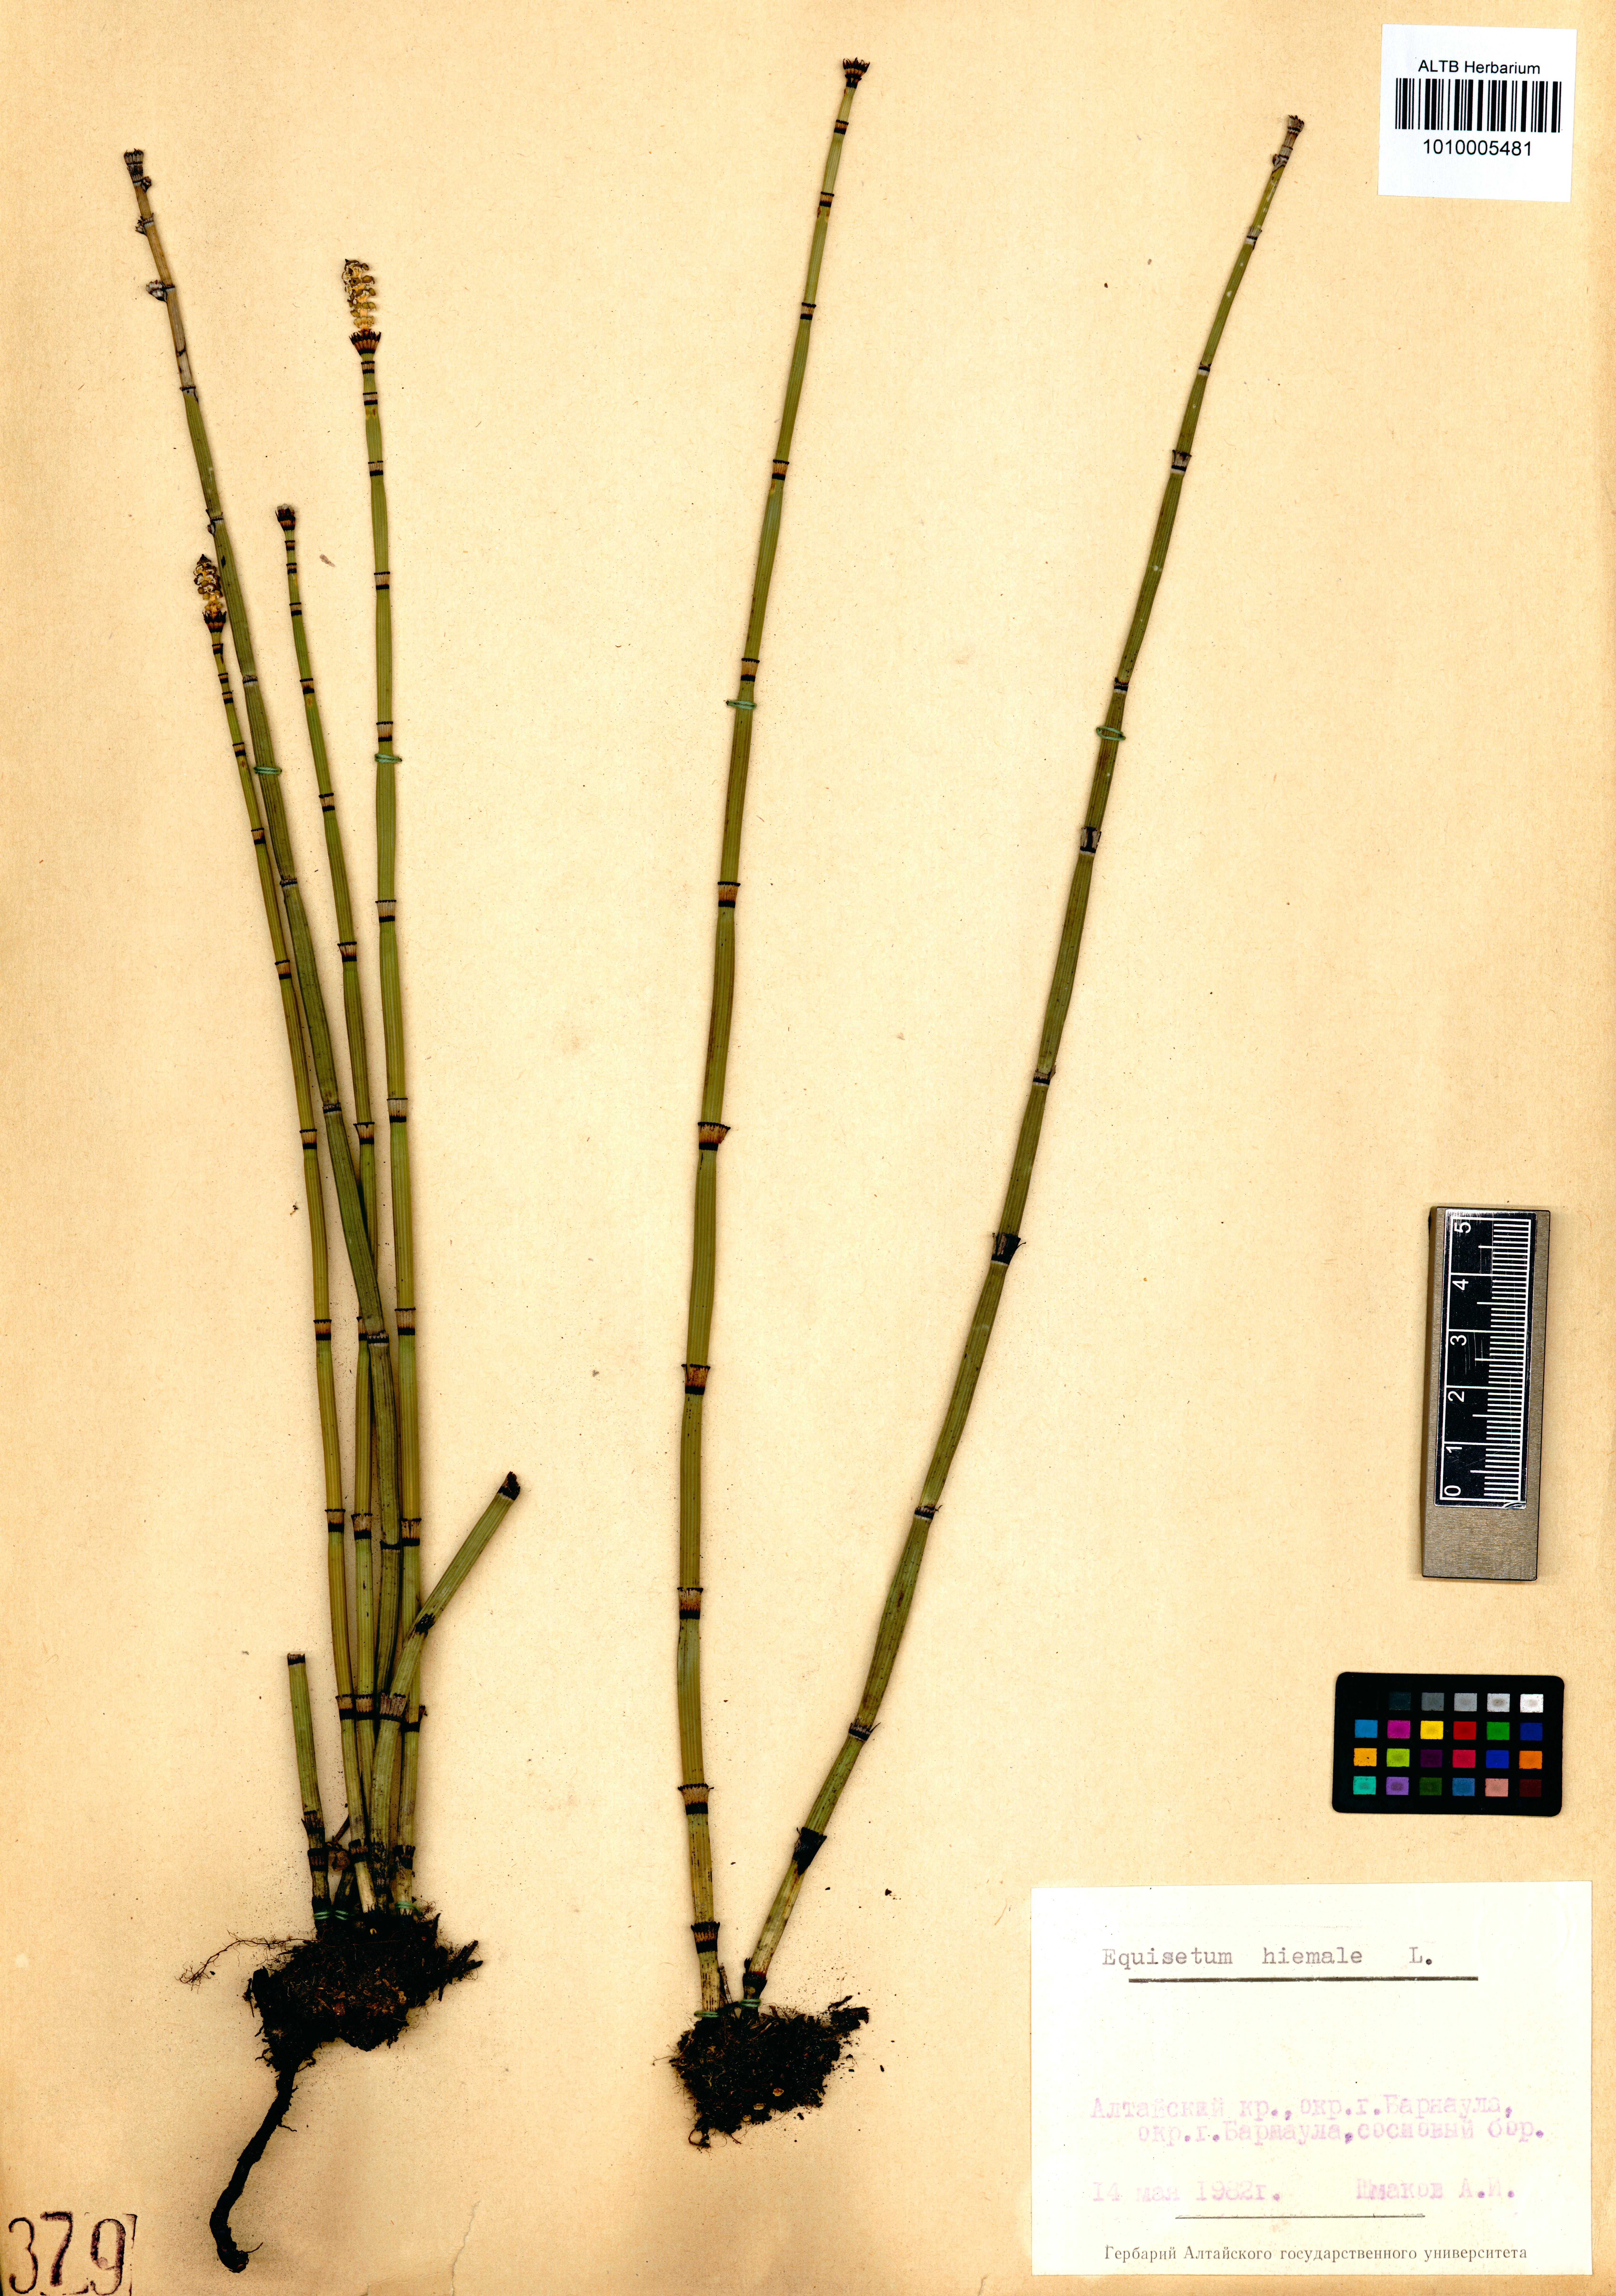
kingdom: Plantae
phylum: Tracheophyta
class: Polypodiopsida
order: Equisetales
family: Equisetaceae
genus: Equisetum
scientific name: Equisetum hyemale
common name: Rough horsetail
